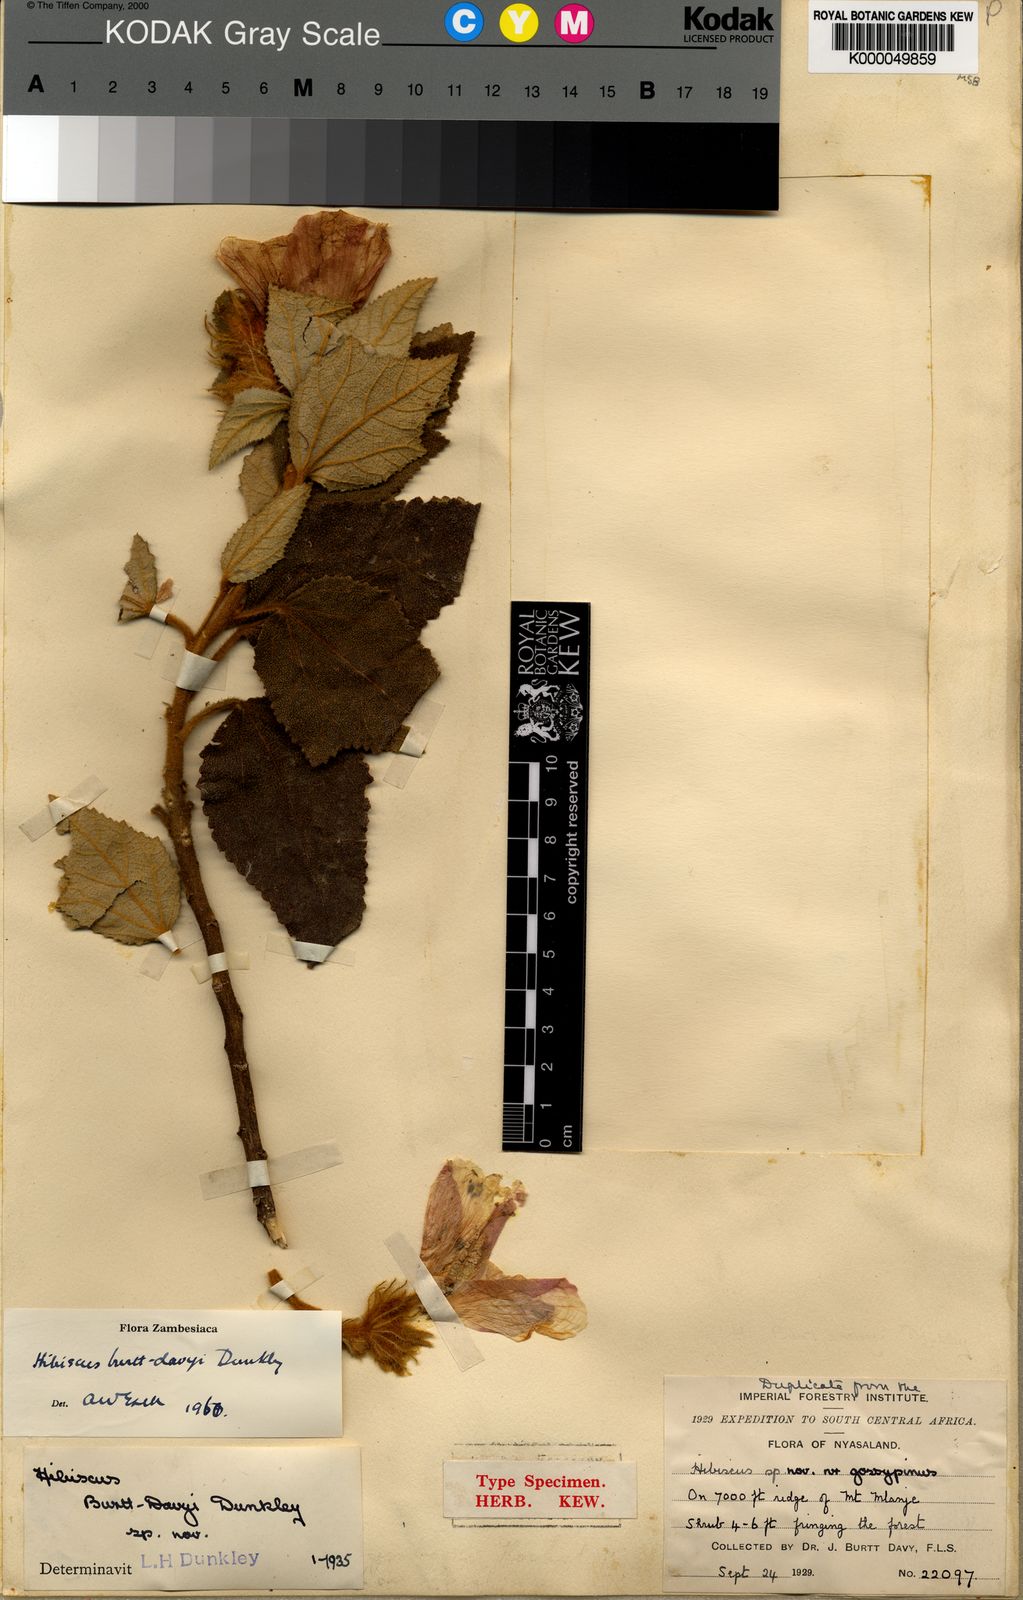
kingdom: Plantae
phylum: Tracheophyta
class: Magnoliopsida
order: Malvales
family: Malvaceae
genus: Hibiscus
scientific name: Hibiscus burtt-davyi
